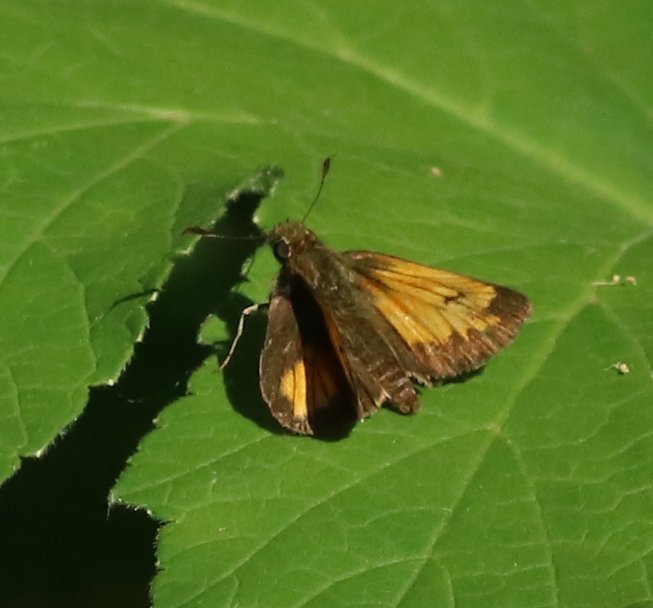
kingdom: Animalia
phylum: Arthropoda
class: Insecta
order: Lepidoptera
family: Hesperiidae
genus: Lon
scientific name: Lon hobomok
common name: Hobomok Skipper
